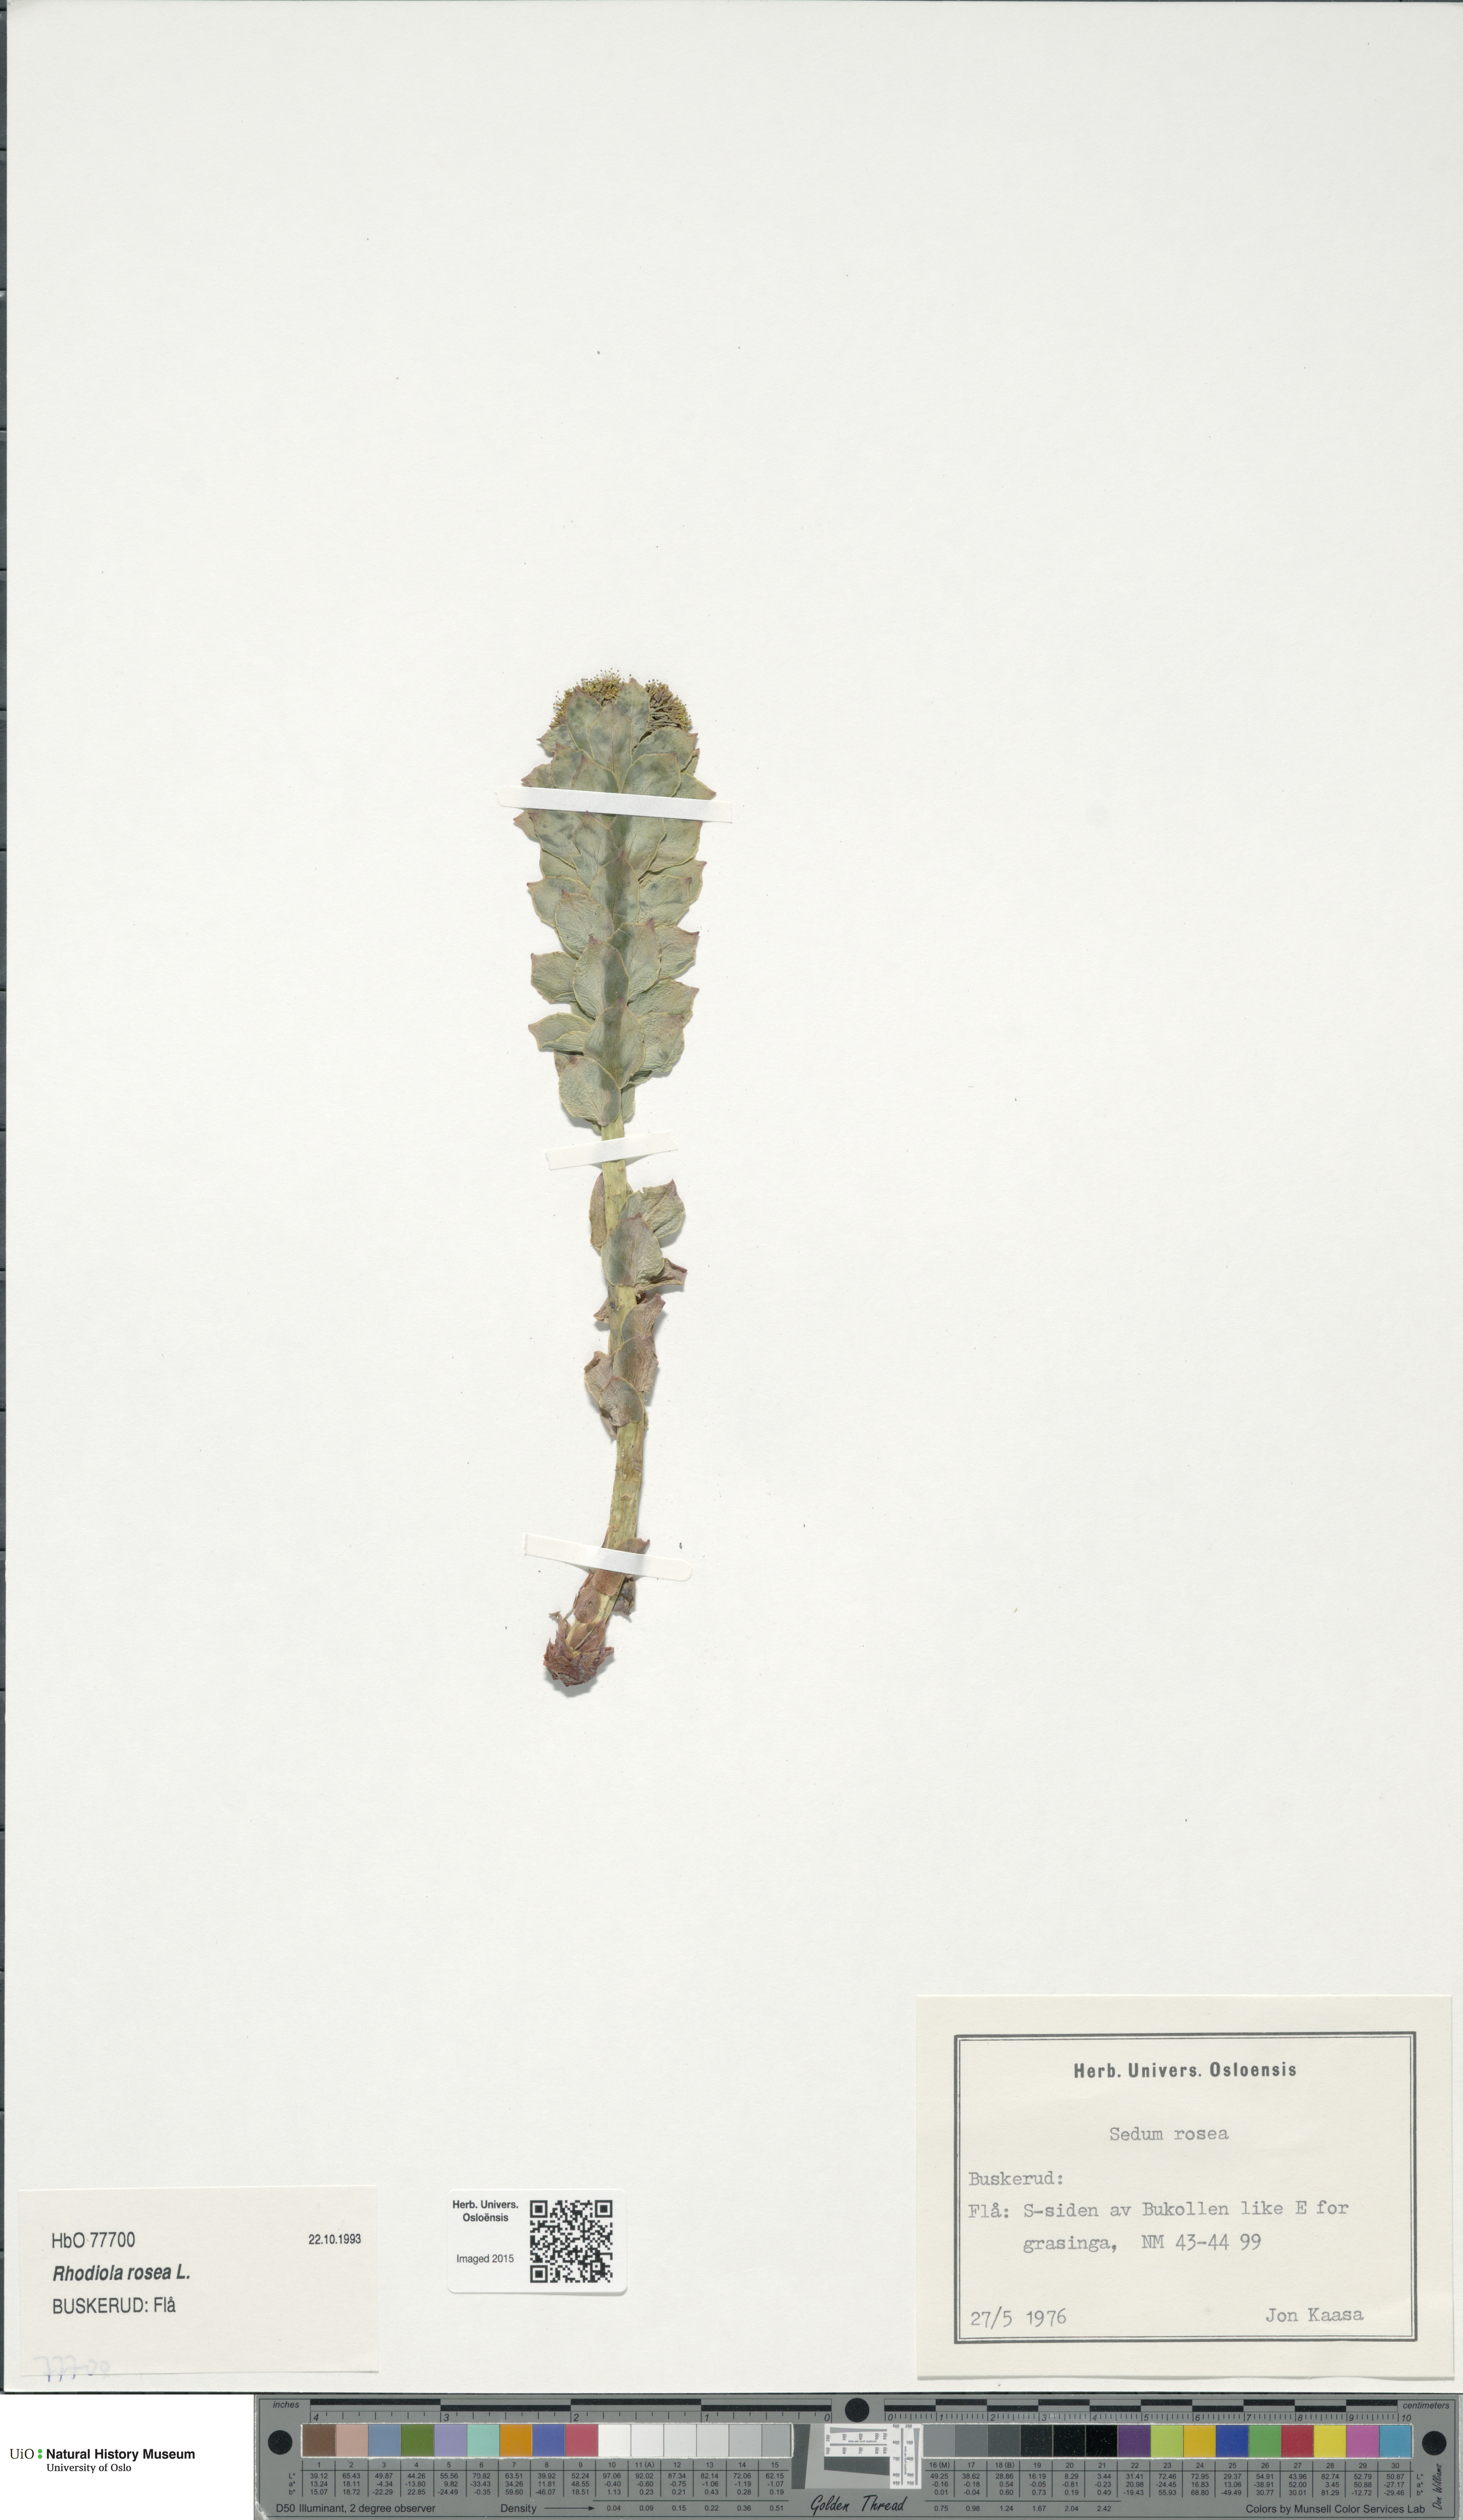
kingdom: Plantae
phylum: Tracheophyta
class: Magnoliopsida
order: Saxifragales
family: Crassulaceae
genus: Rhodiola
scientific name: Rhodiola rosea
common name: Roseroot
